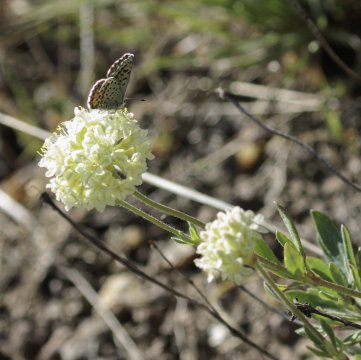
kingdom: Animalia
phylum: Arthropoda
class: Insecta
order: Lepidoptera
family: Lycaenidae
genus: Euphilotes
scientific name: Euphilotes
